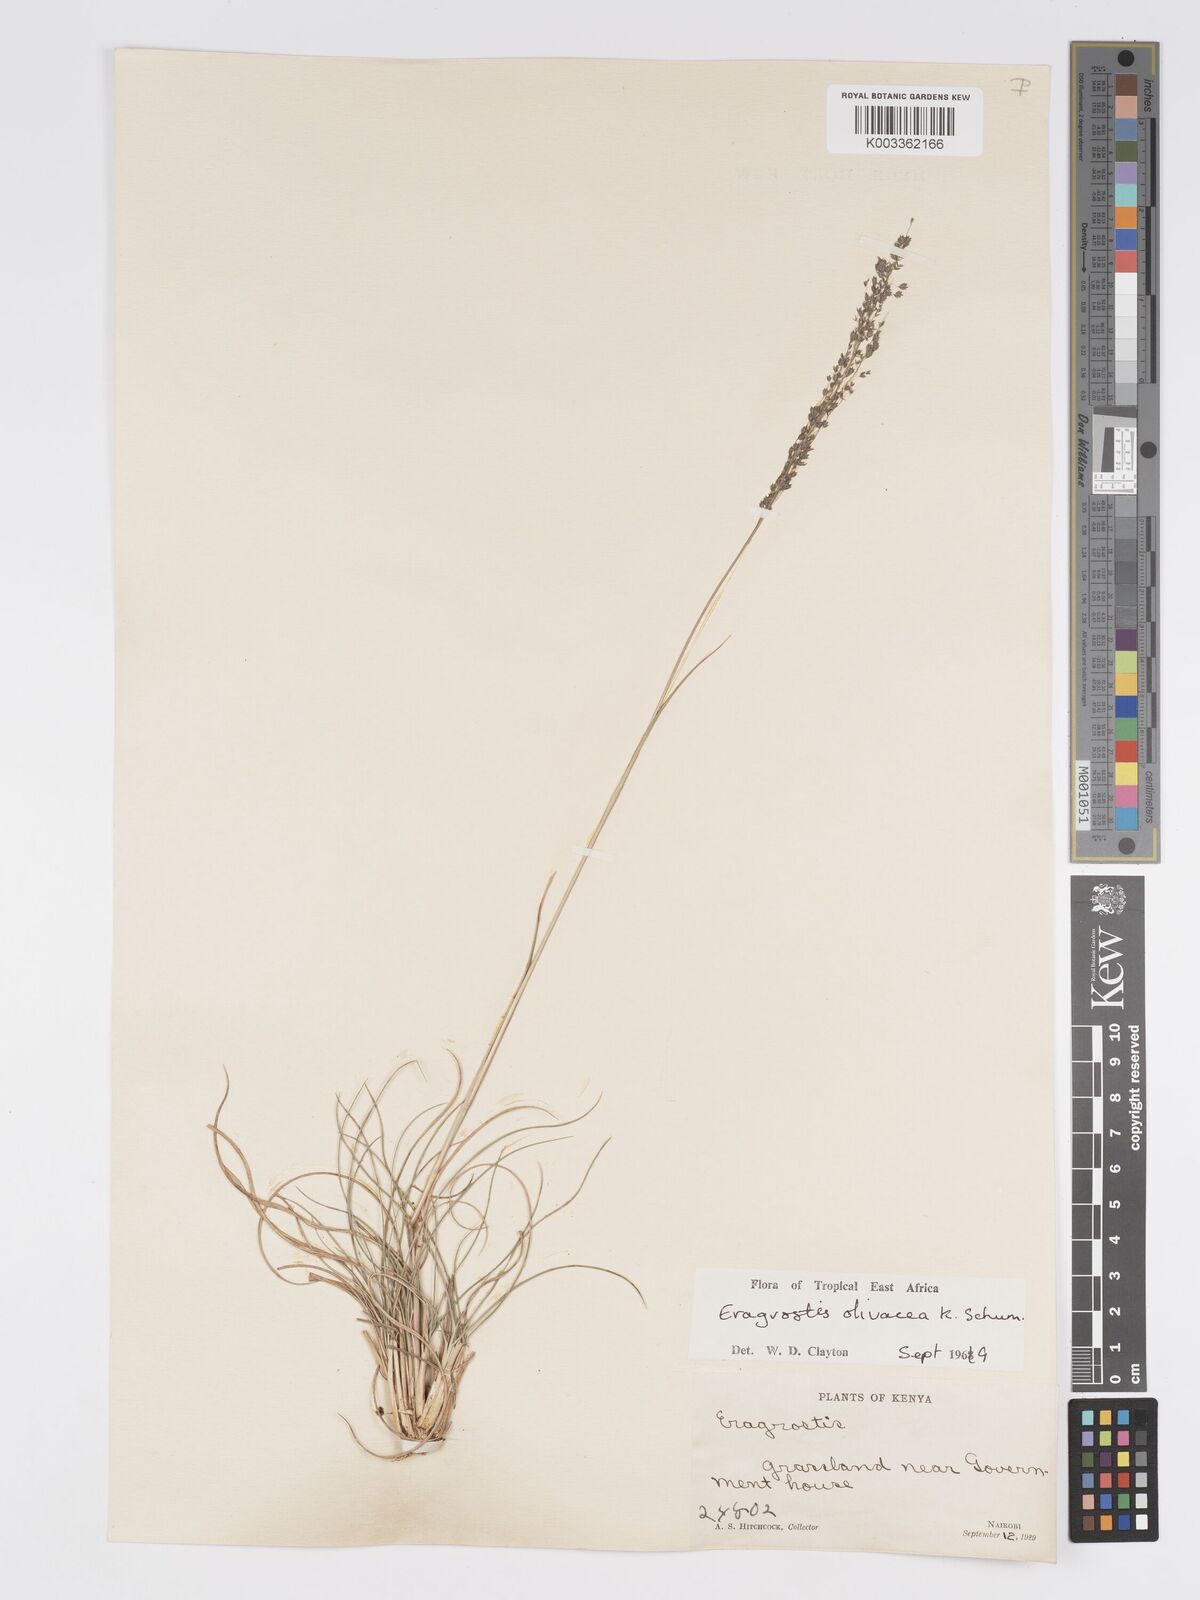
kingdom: Plantae
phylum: Tracheophyta
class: Liliopsida
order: Poales
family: Poaceae
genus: Eragrostis
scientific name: Eragrostis olivacea
